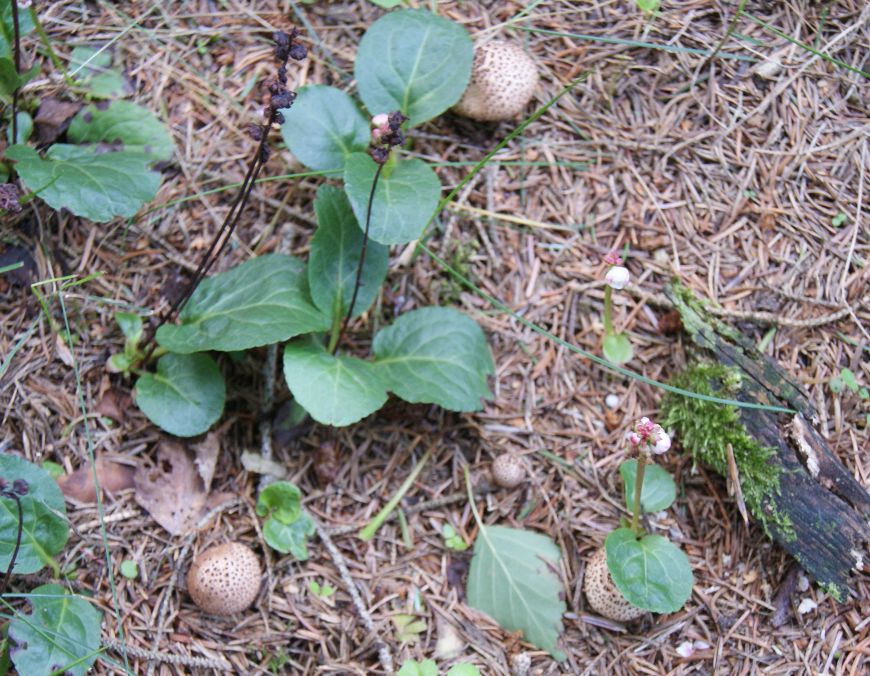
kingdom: Fungi
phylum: Basidiomycota
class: Agaricomycetes
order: Agaricales
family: Agaricaceae
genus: Echinoderma
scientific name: Echinoderma echinaceum
